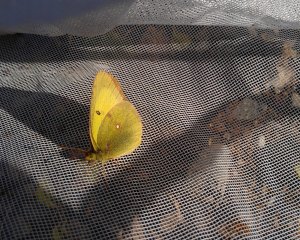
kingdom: Animalia
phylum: Arthropoda
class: Insecta
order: Lepidoptera
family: Pieridae
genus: Colias
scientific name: Colias philodice
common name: Clouded Sulphur
